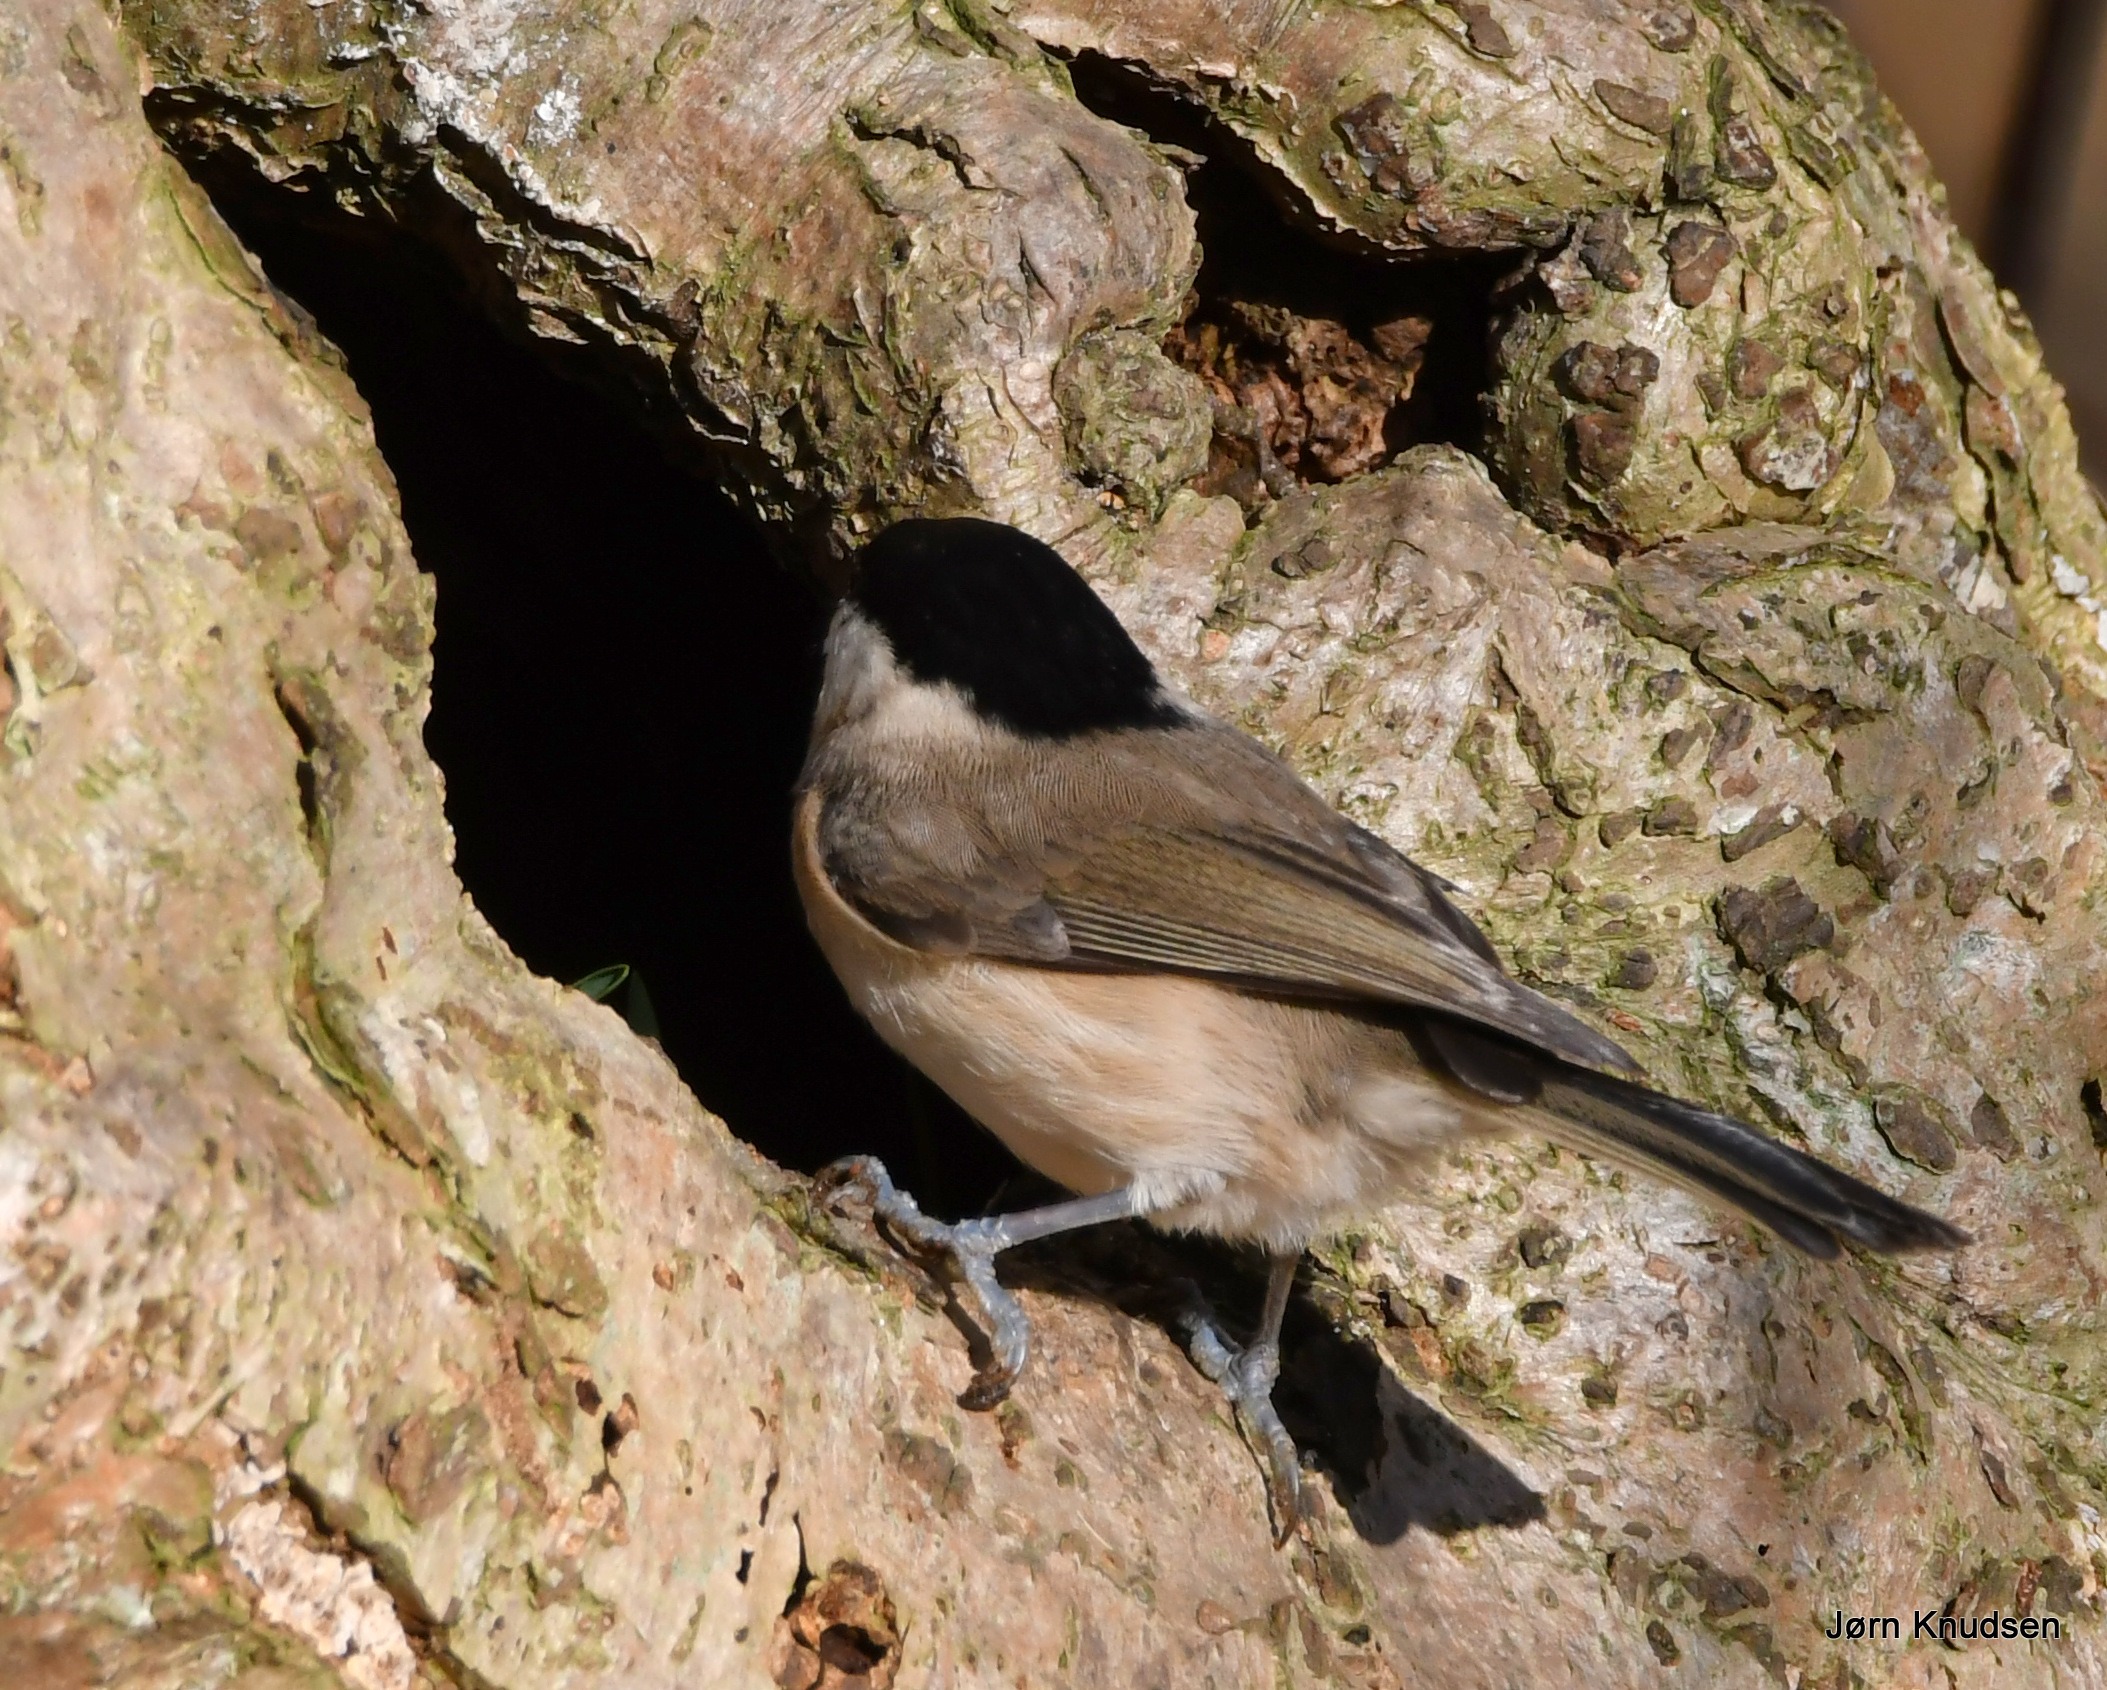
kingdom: Animalia
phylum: Chordata
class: Aves
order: Passeriformes
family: Paridae
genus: Poecile
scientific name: Poecile palustris
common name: Sumpmejse
